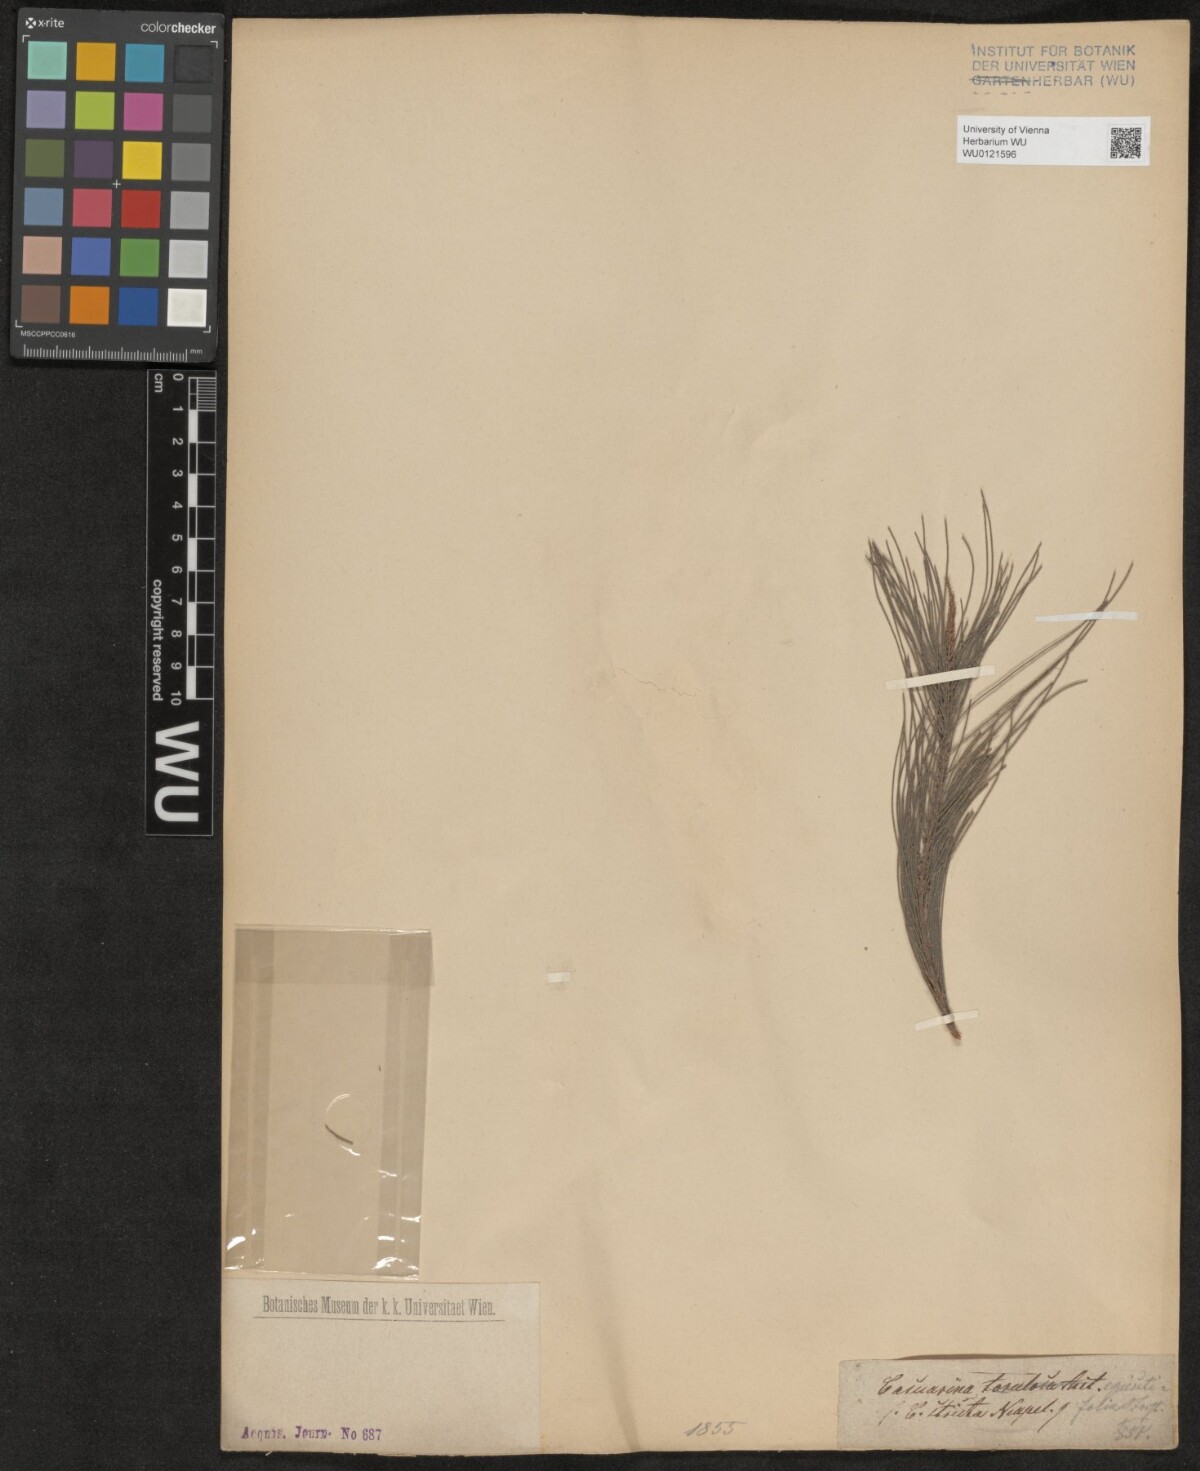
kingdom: Plantae
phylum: Tracheophyta
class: Magnoliopsida
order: Fagales
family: Casuarinaceae
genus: Casuarina
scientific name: Casuarina equisetifolia
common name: Beach sheoak
